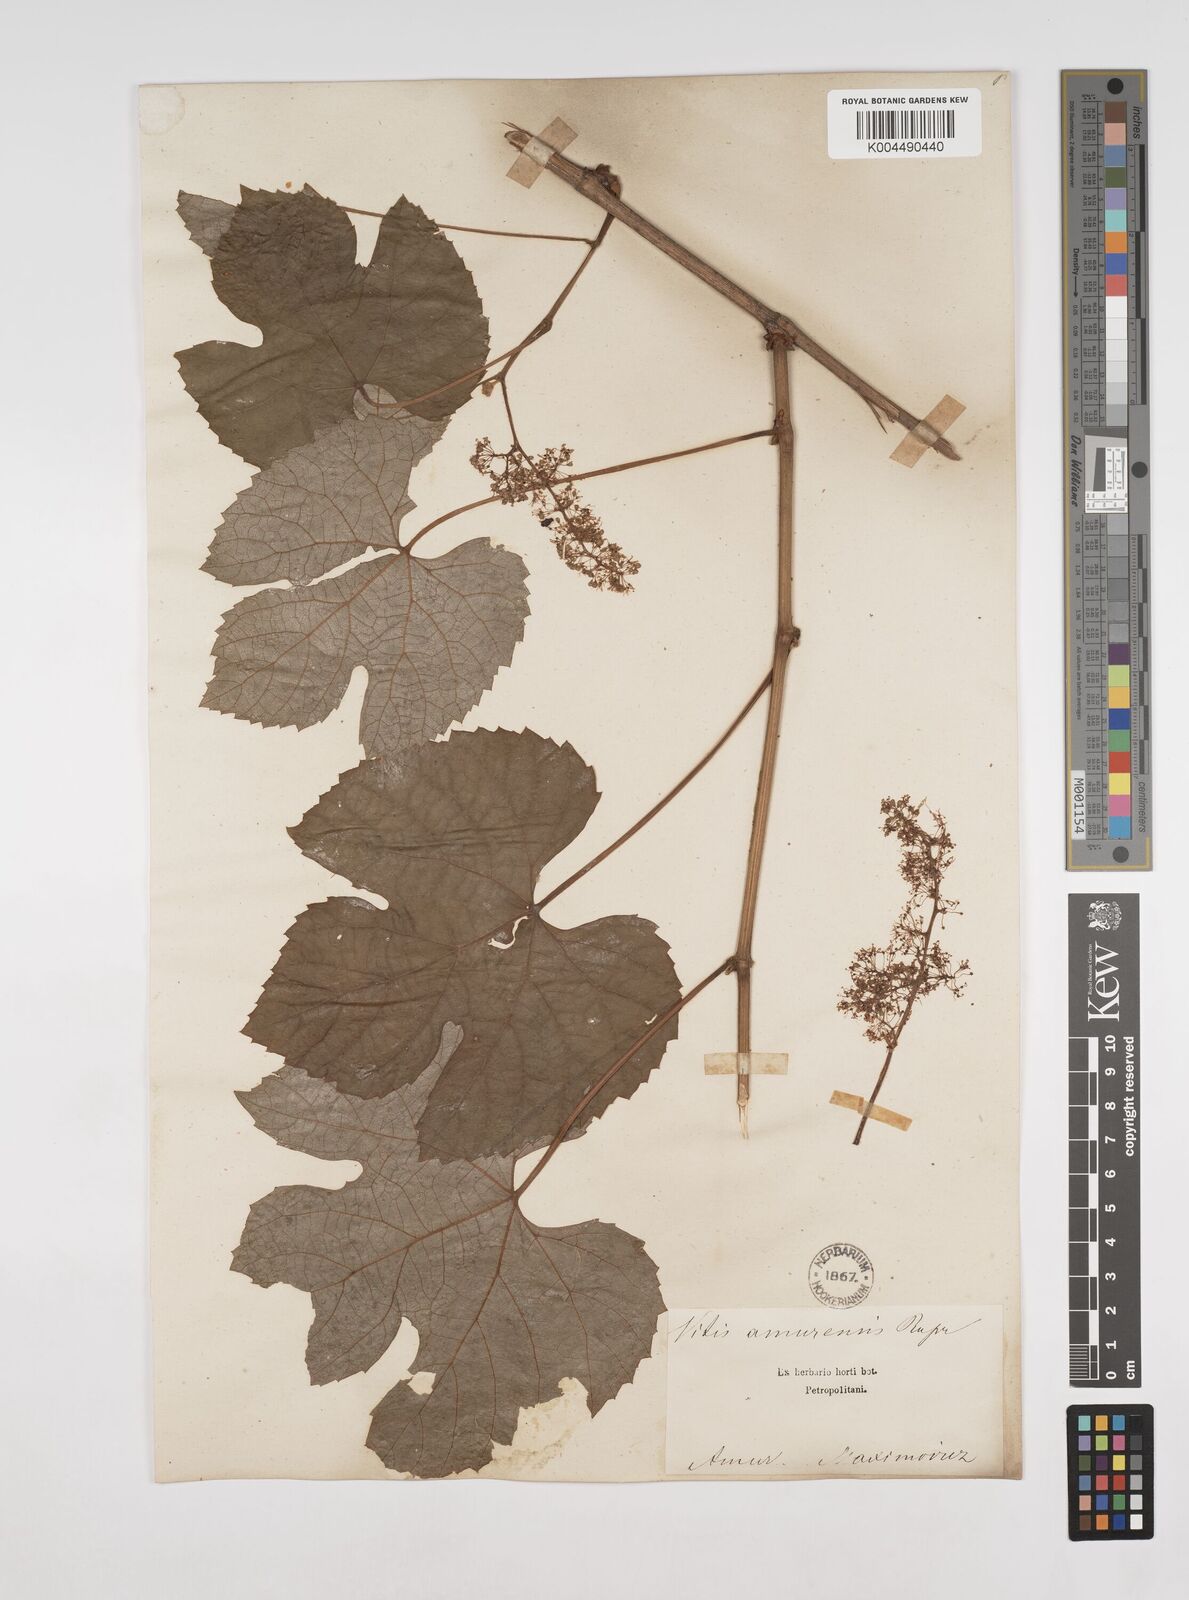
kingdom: Plantae
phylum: Tracheophyta
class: Magnoliopsida
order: Vitales
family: Vitaceae
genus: Vitis
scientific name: Vitis vinifera
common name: Grape-vine
